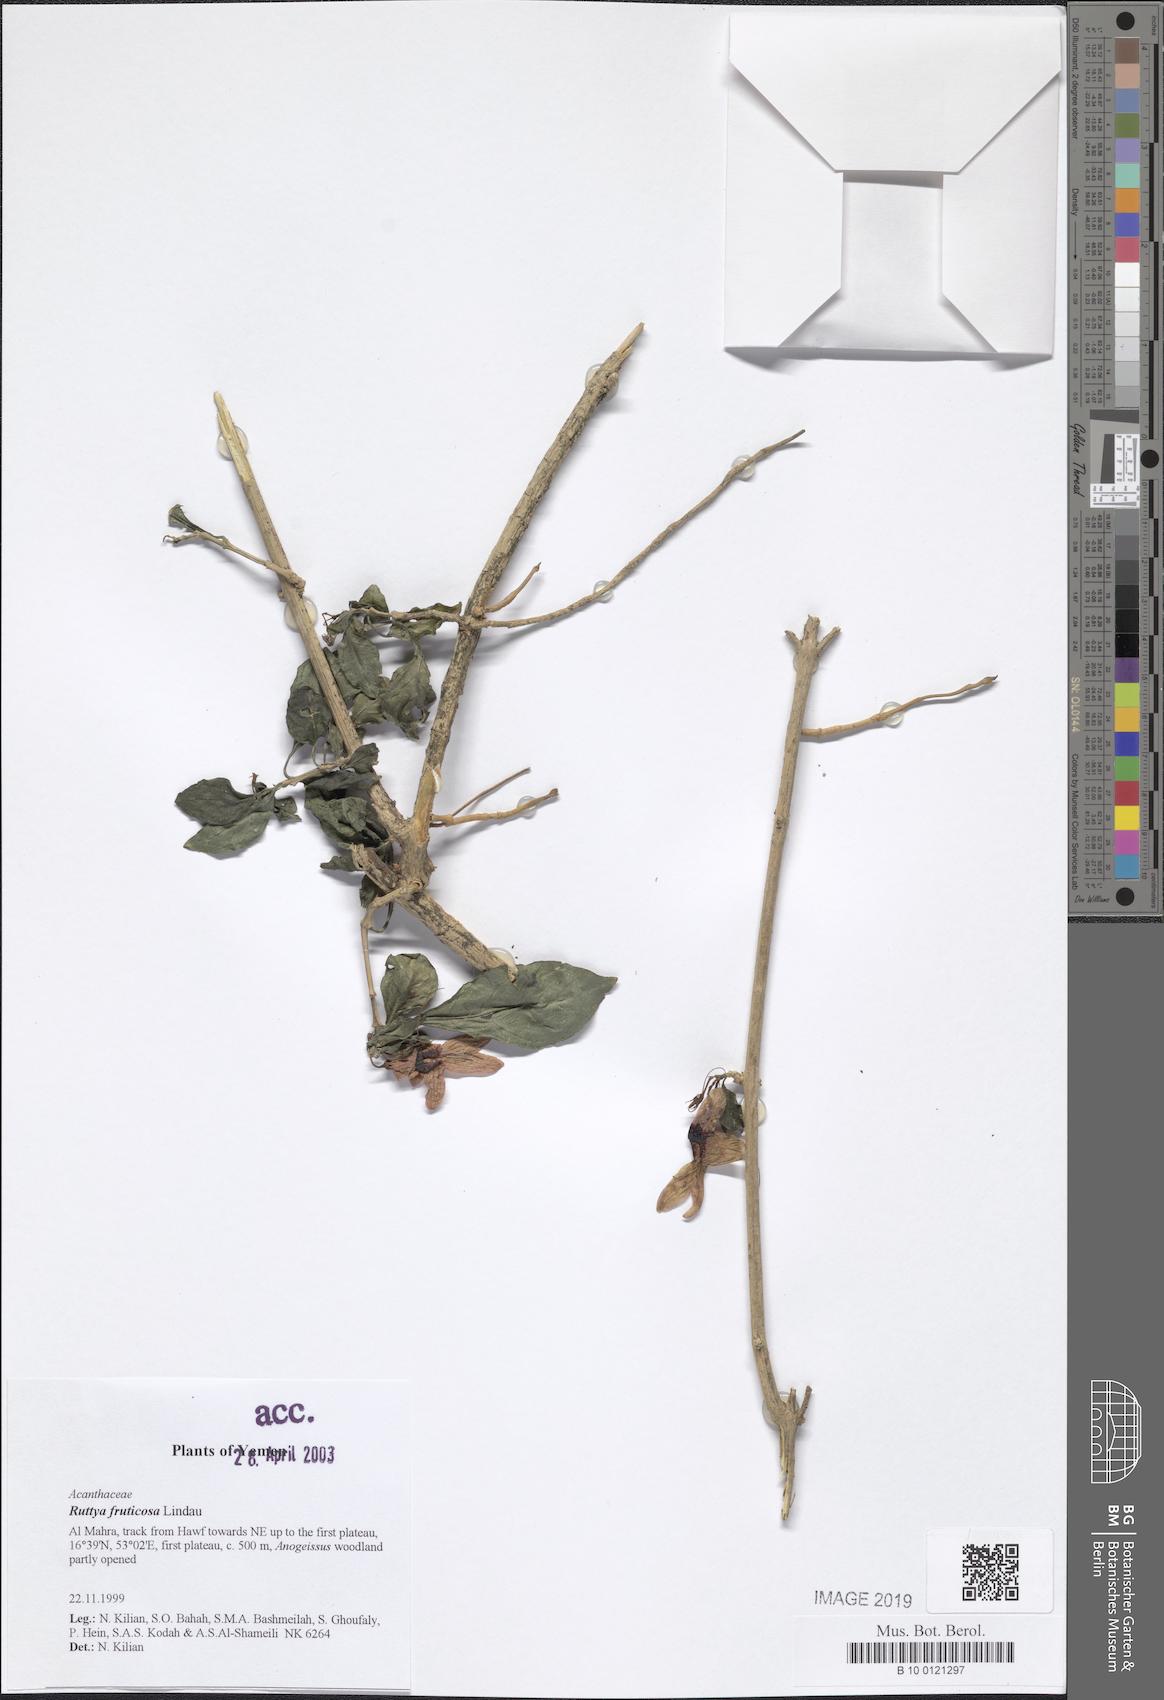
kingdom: Plantae
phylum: Tracheophyta
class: Magnoliopsida
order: Lamiales
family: Acanthaceae
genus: Ruttya
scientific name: Ruttya fruticosa
